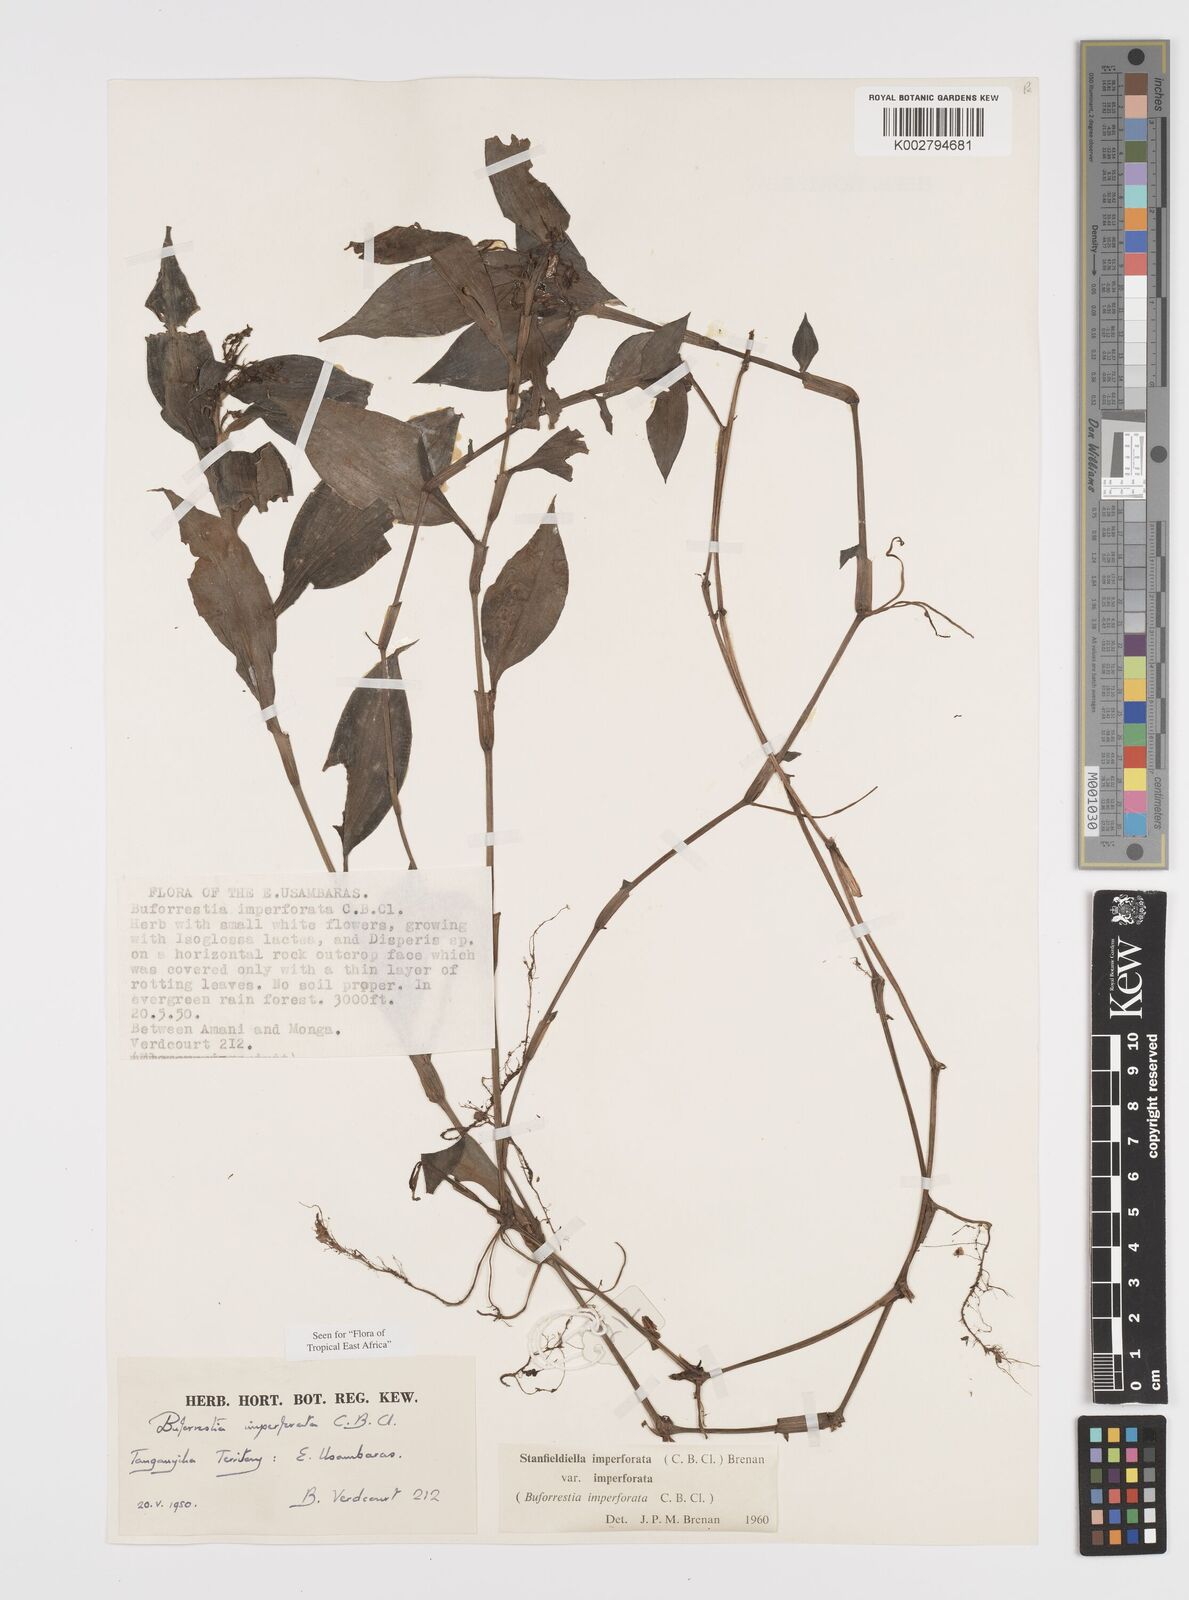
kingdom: Plantae
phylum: Tracheophyta
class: Liliopsida
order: Commelinales
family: Commelinaceae
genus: Stanfieldiella
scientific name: Stanfieldiella imperforata
